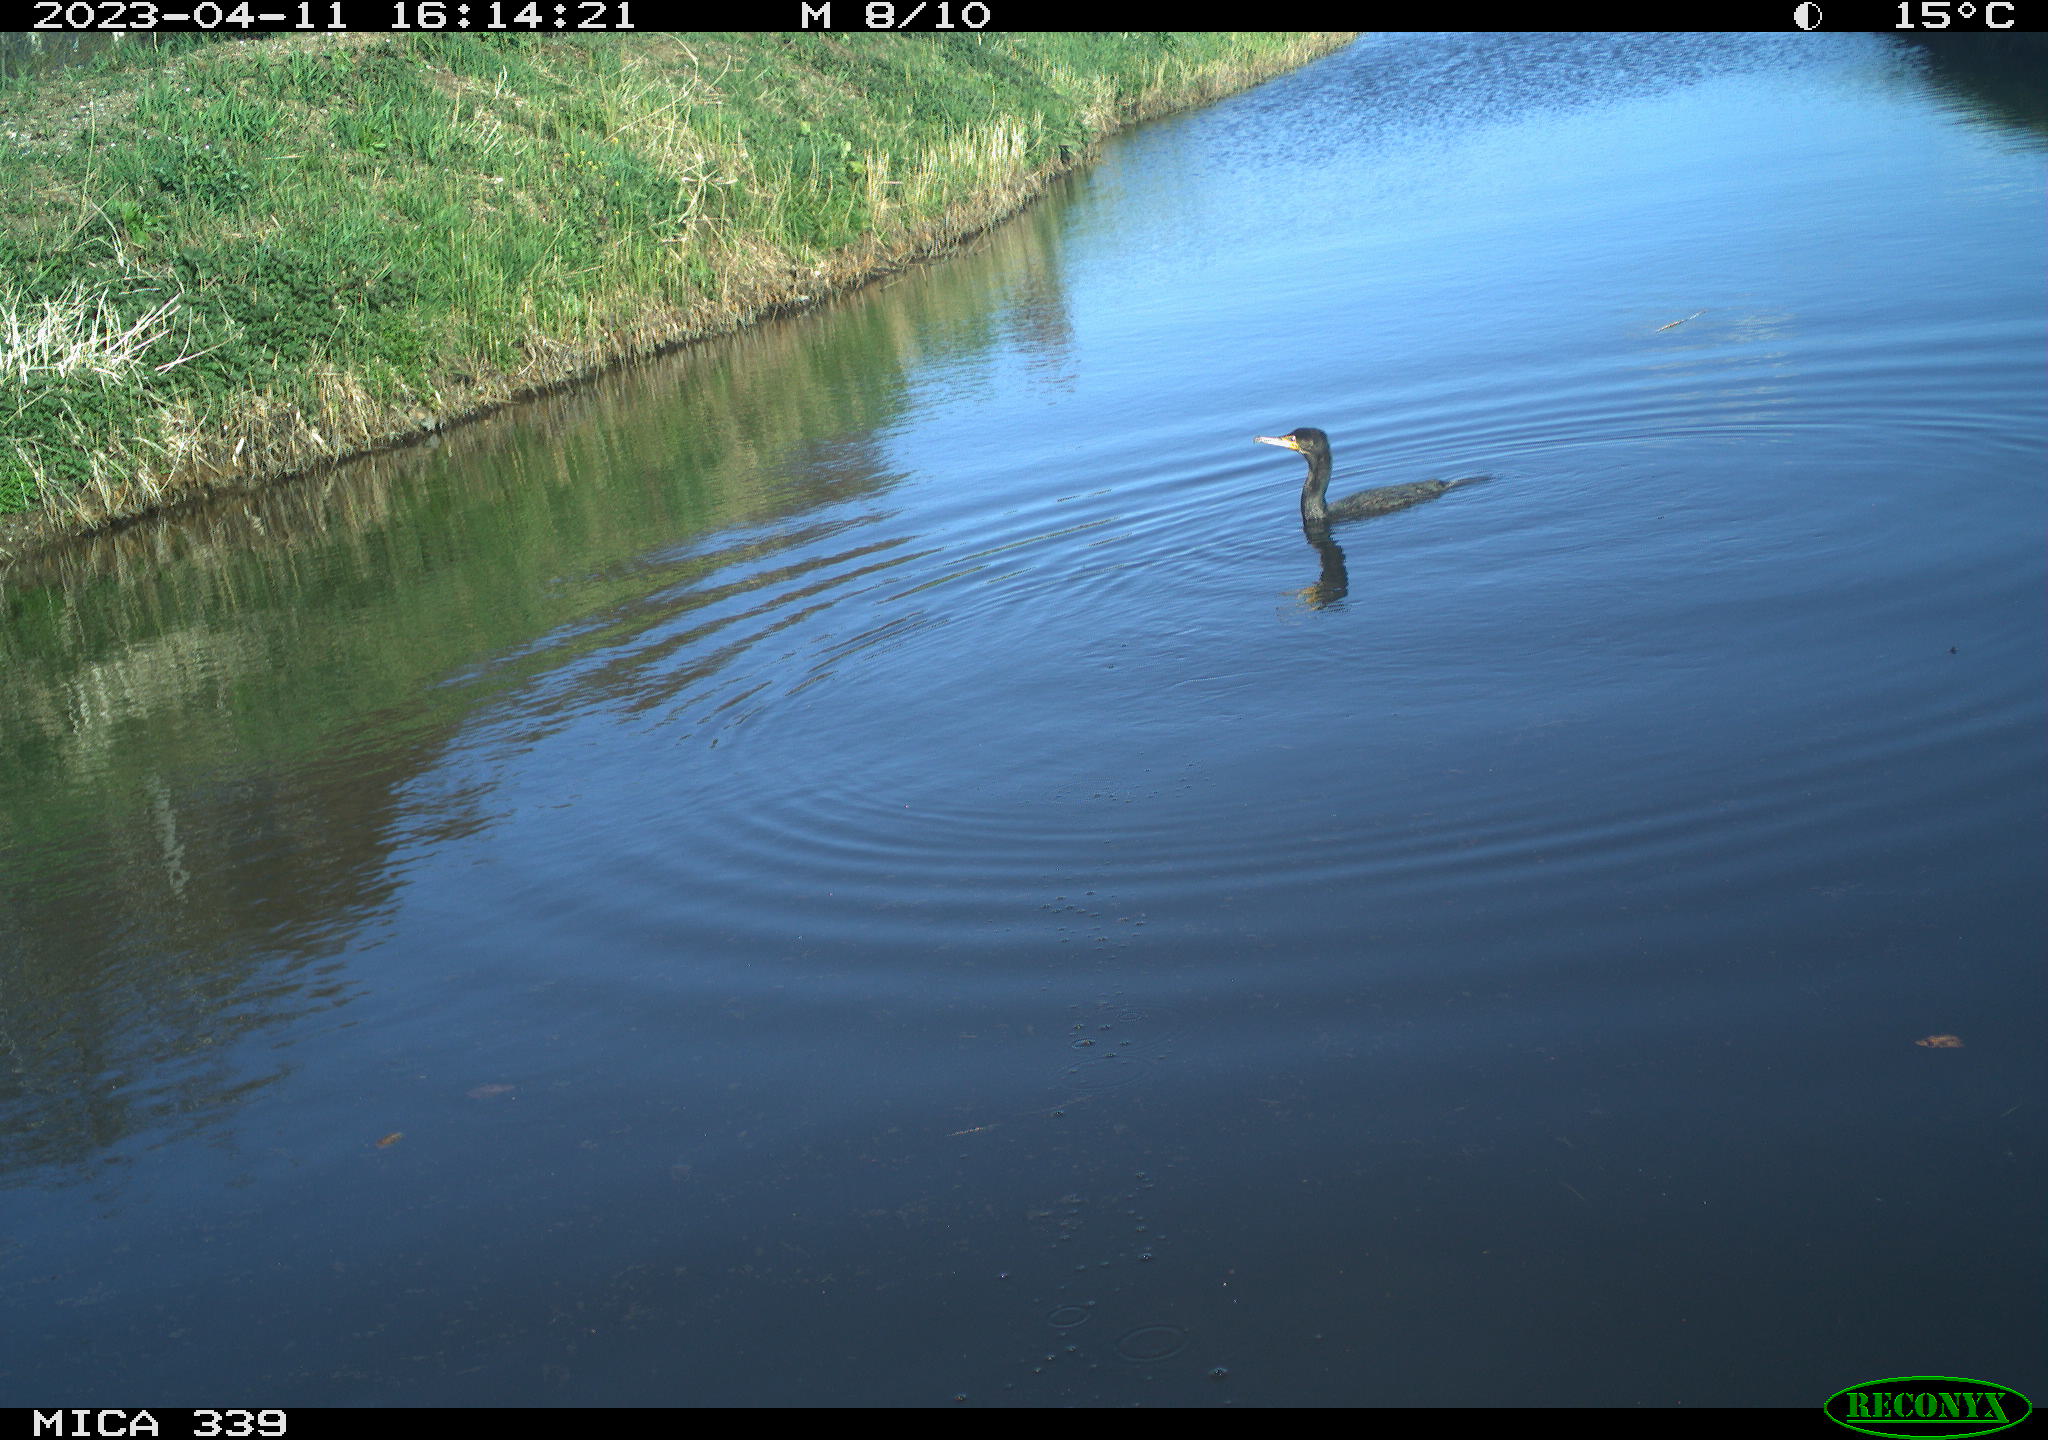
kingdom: Animalia
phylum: Chordata
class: Aves
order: Pelecaniformes
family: Ardeidae
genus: Ardea
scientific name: Ardea
